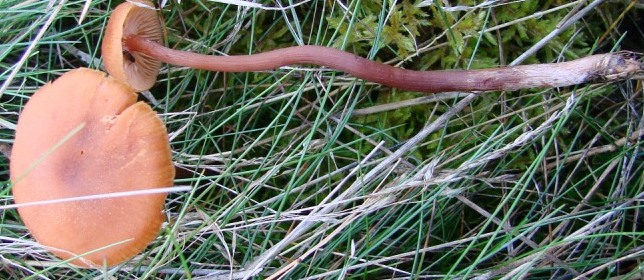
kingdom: Fungi
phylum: Basidiomycota
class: Agaricomycetes
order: Agaricales
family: Hydnangiaceae
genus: Laccaria
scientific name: Laccaria bicolor
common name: tvefarvet ametysthat
